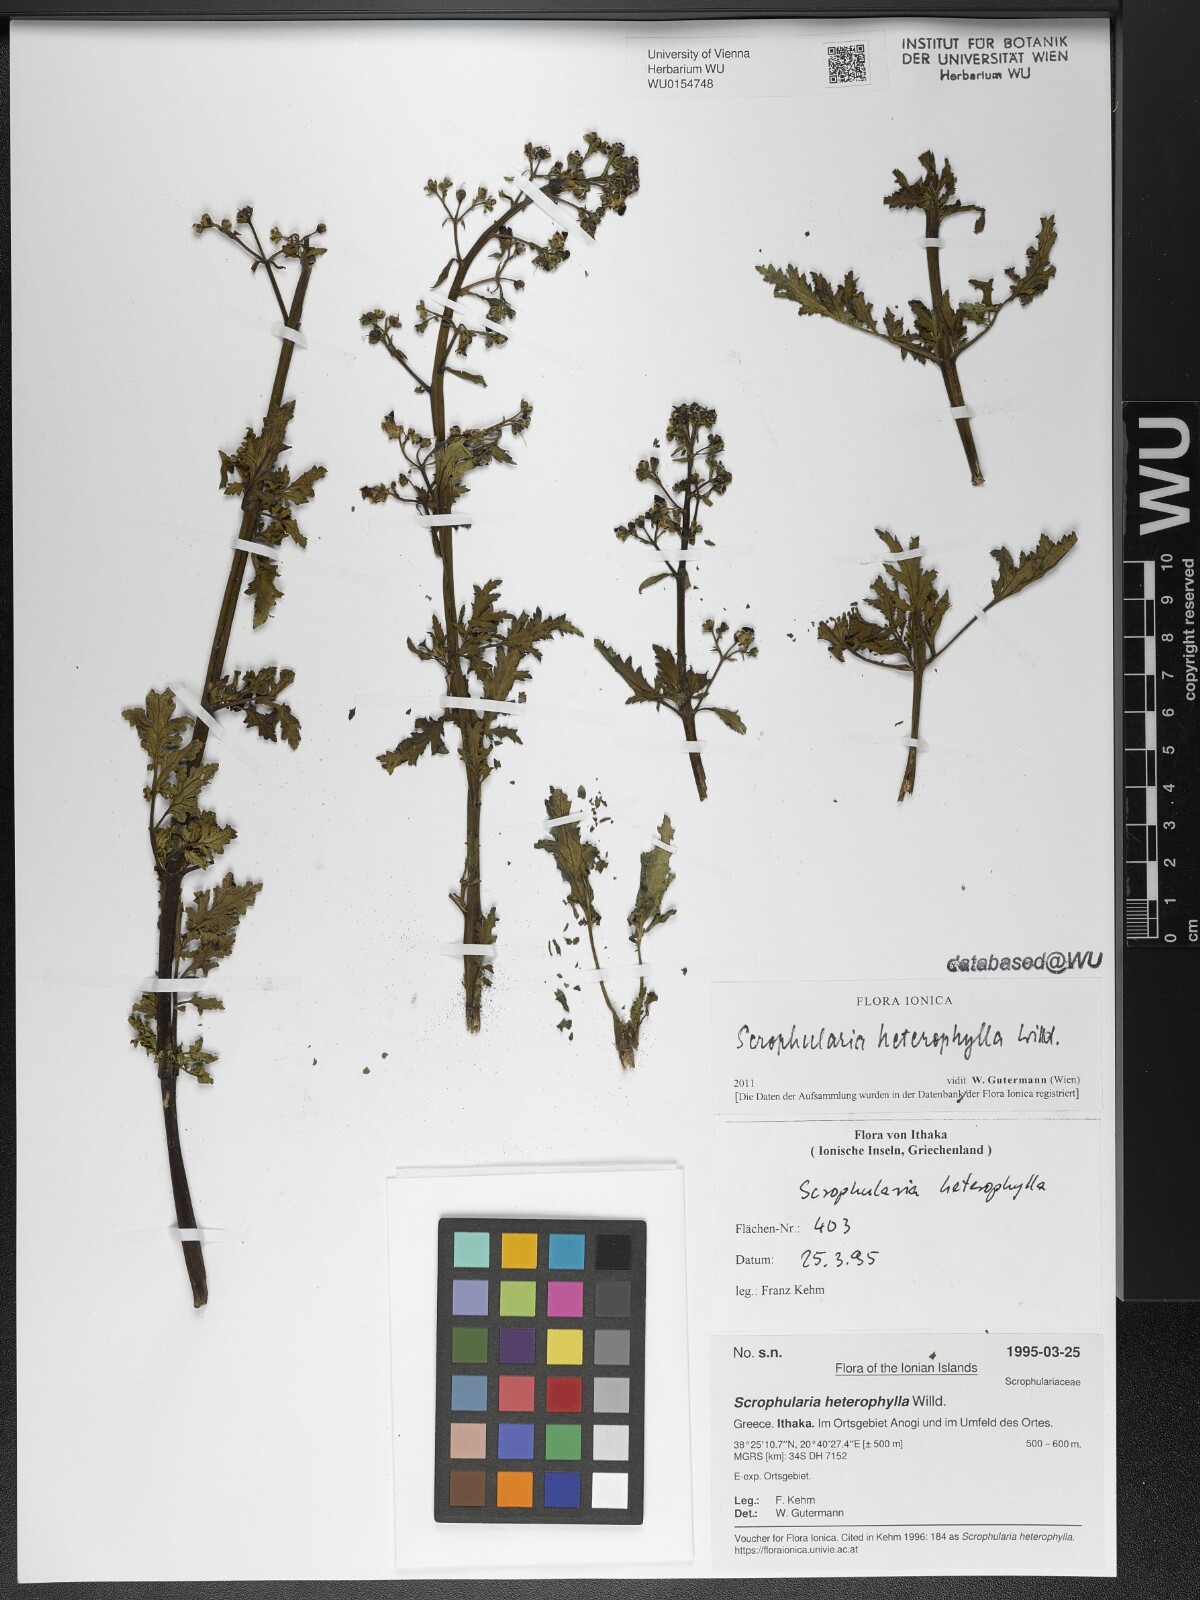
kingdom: Plantae
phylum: Tracheophyta
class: Magnoliopsida
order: Lamiales
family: Scrophulariaceae
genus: Scrophularia
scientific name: Scrophularia heterophylla
